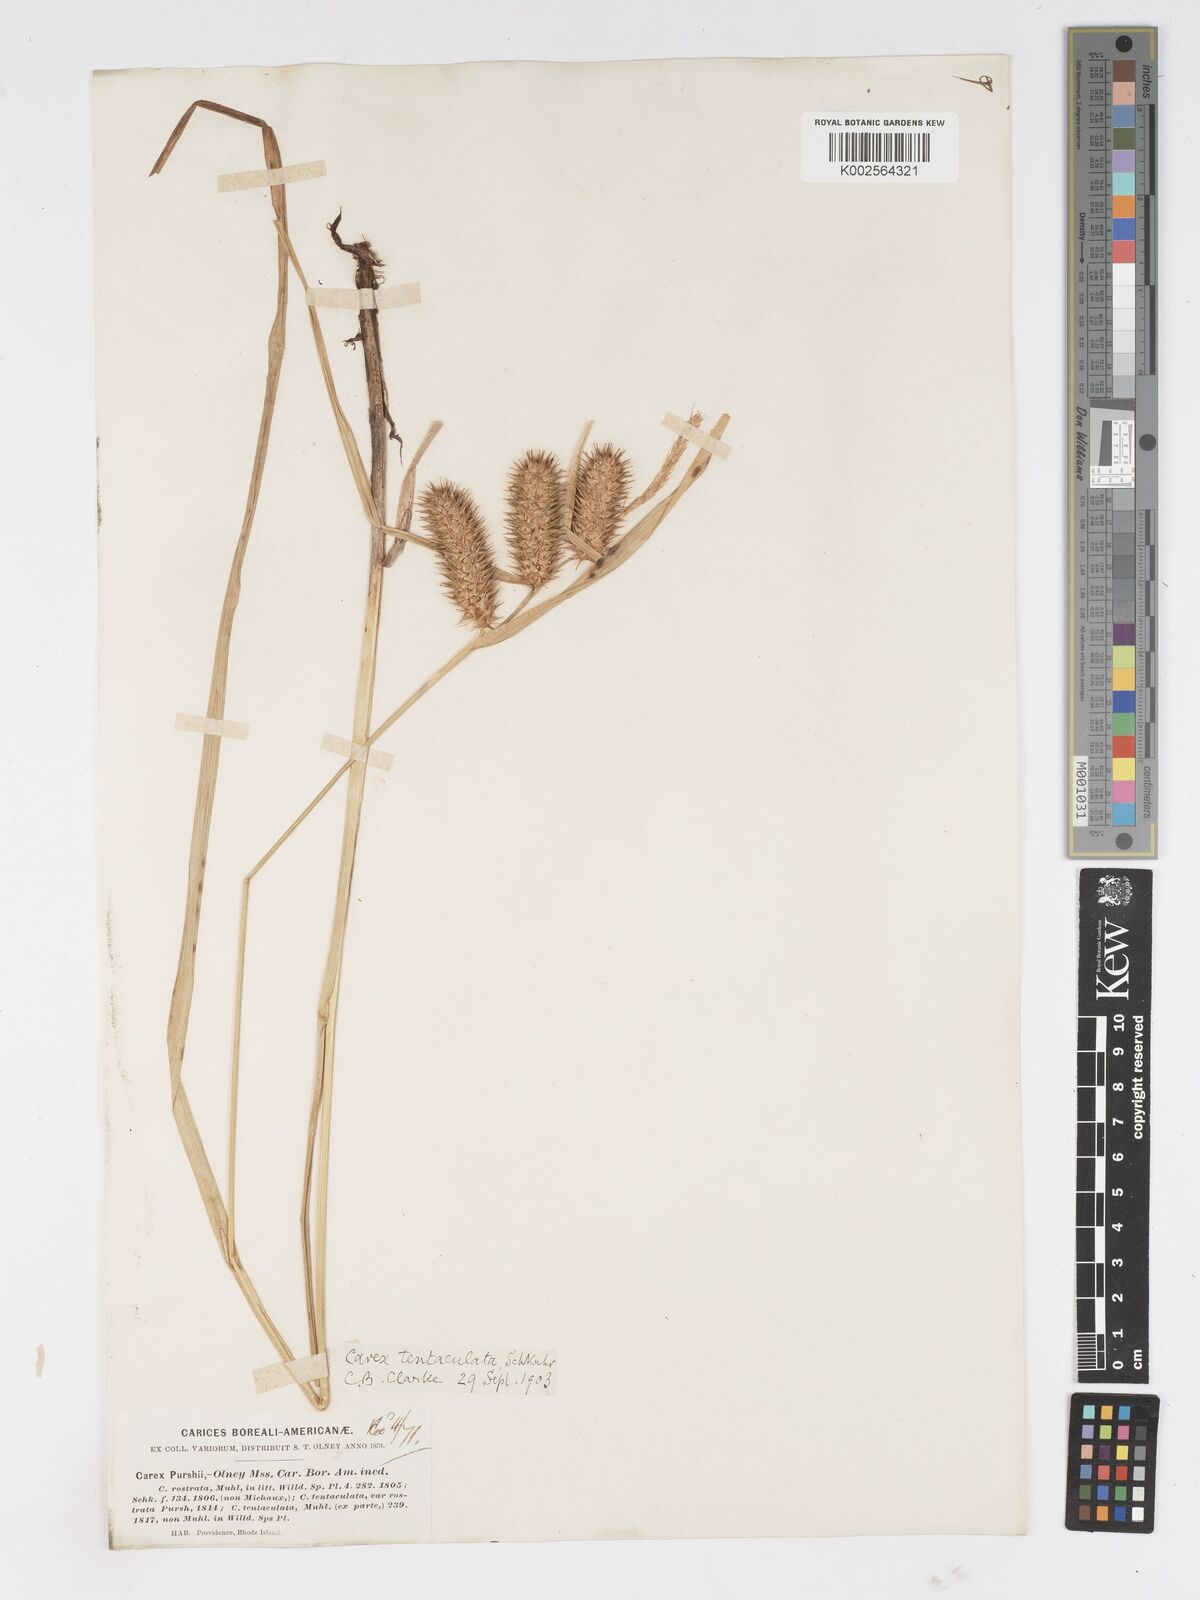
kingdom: Plantae
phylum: Tracheophyta
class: Liliopsida
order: Poales
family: Cyperaceae
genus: Carex
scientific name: Carex lurida
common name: Sallow sedge
